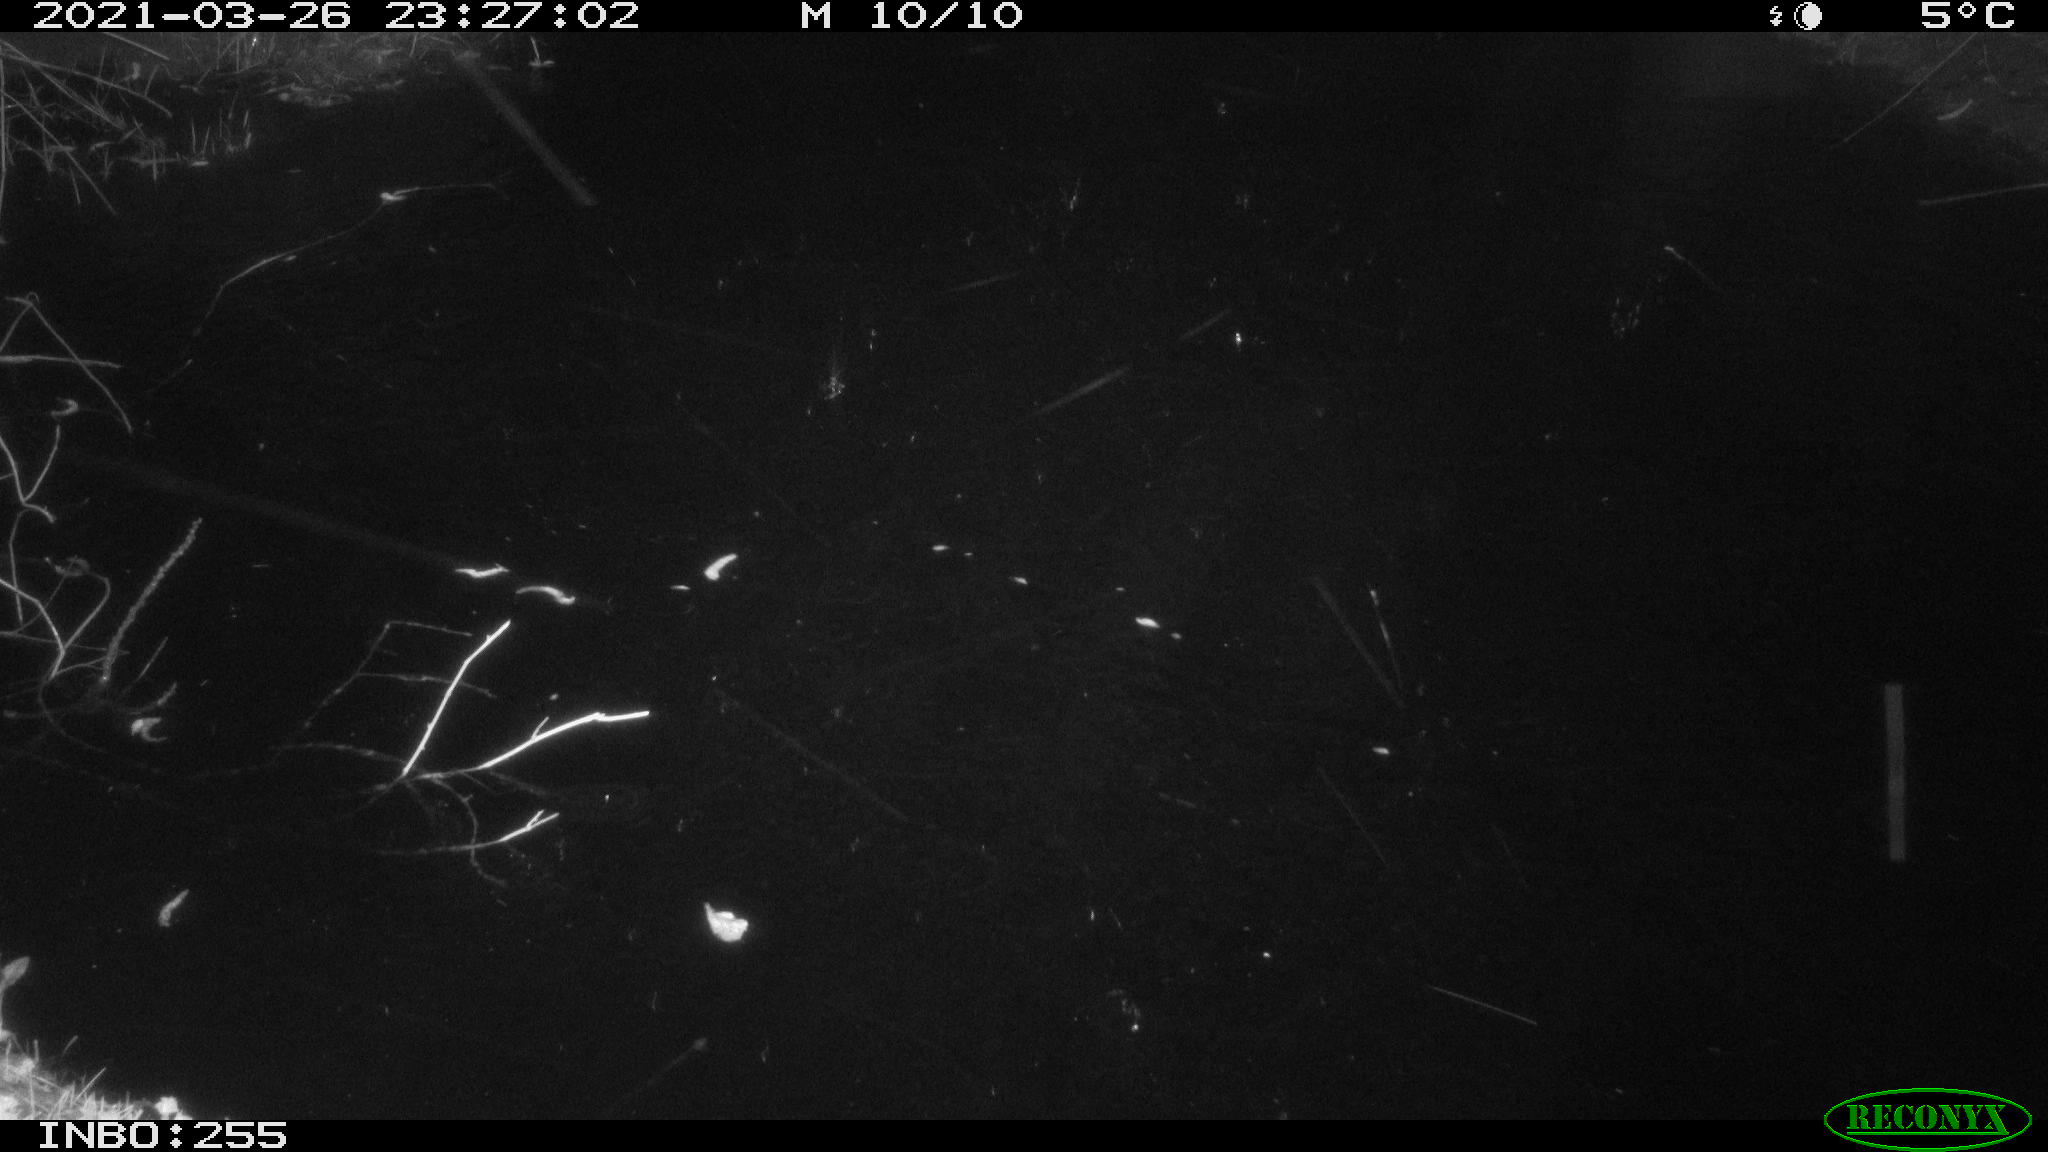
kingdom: Animalia
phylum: Chordata
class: Aves
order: Anseriformes
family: Anatidae
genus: Anas
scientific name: Anas platyrhynchos
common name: Mallard
